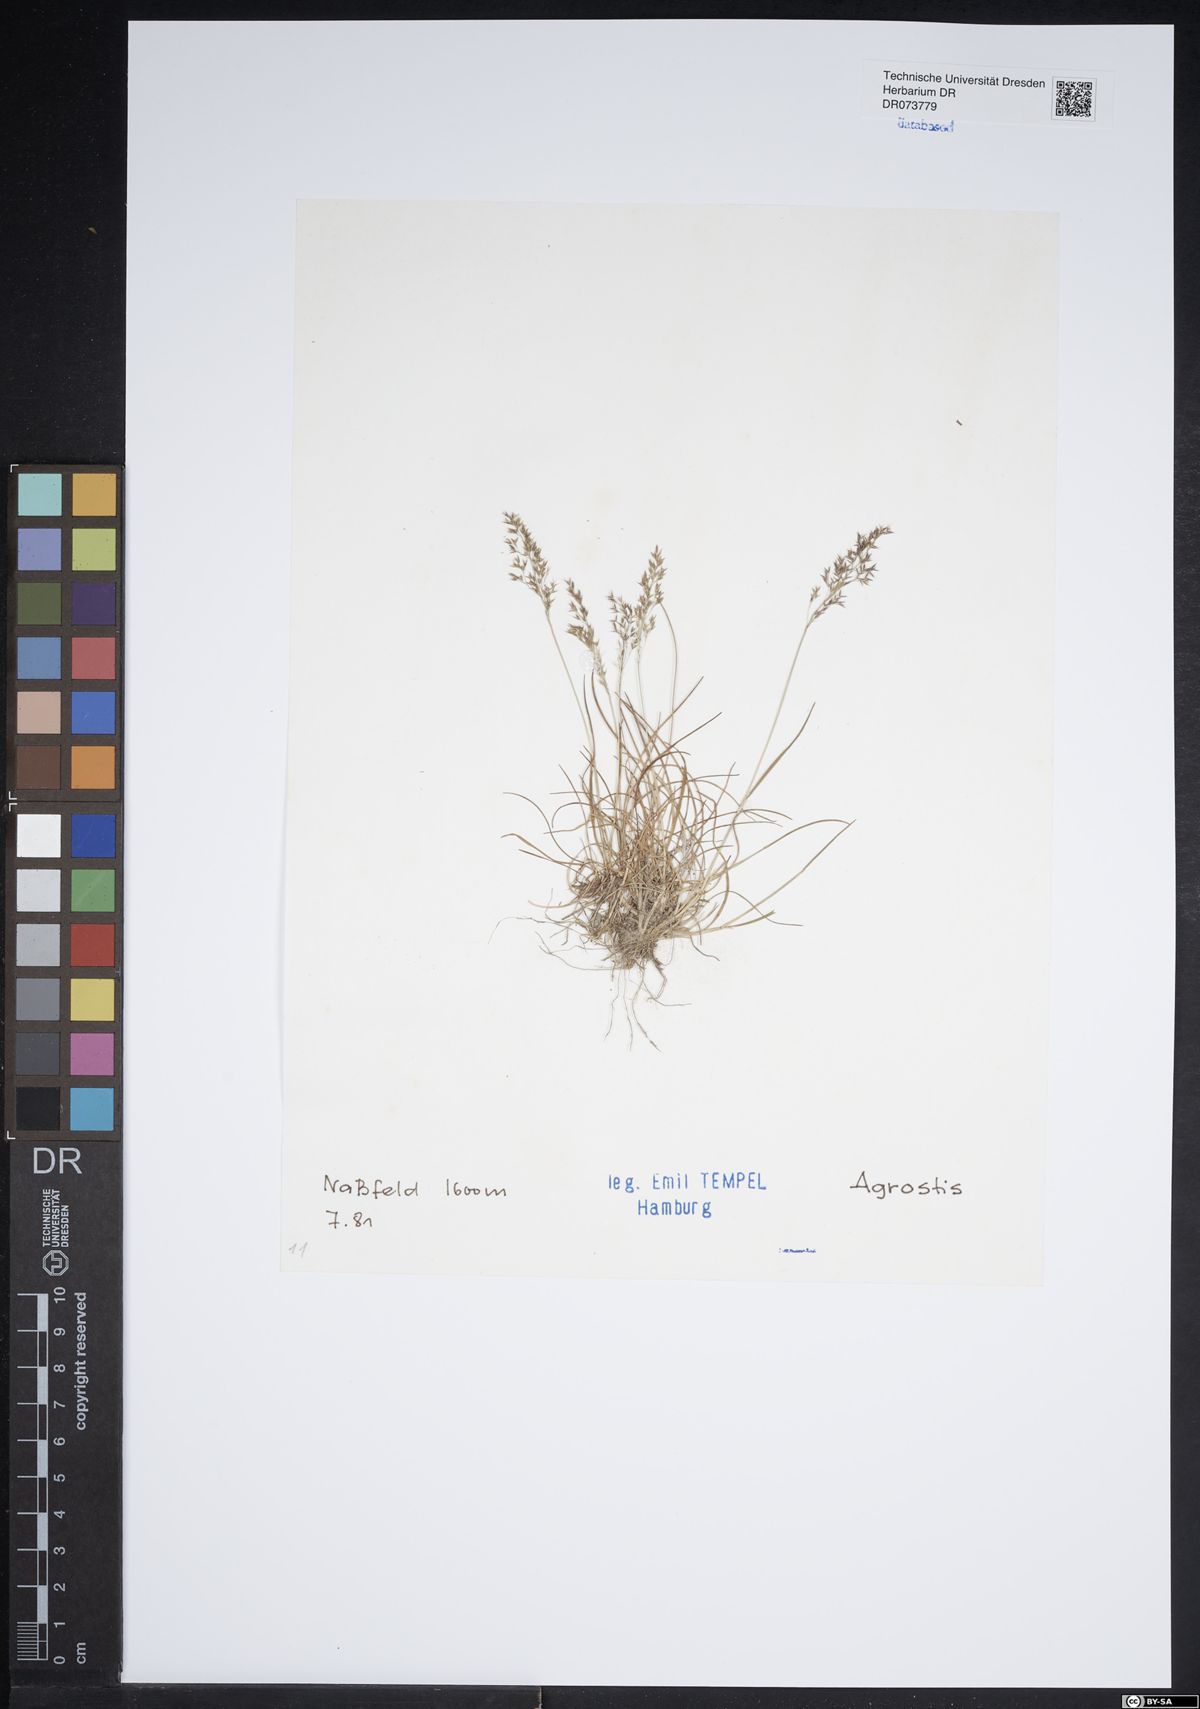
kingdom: Plantae
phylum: Tracheophyta
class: Liliopsida
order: Poales
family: Poaceae
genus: Agrostis
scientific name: Agrostis
